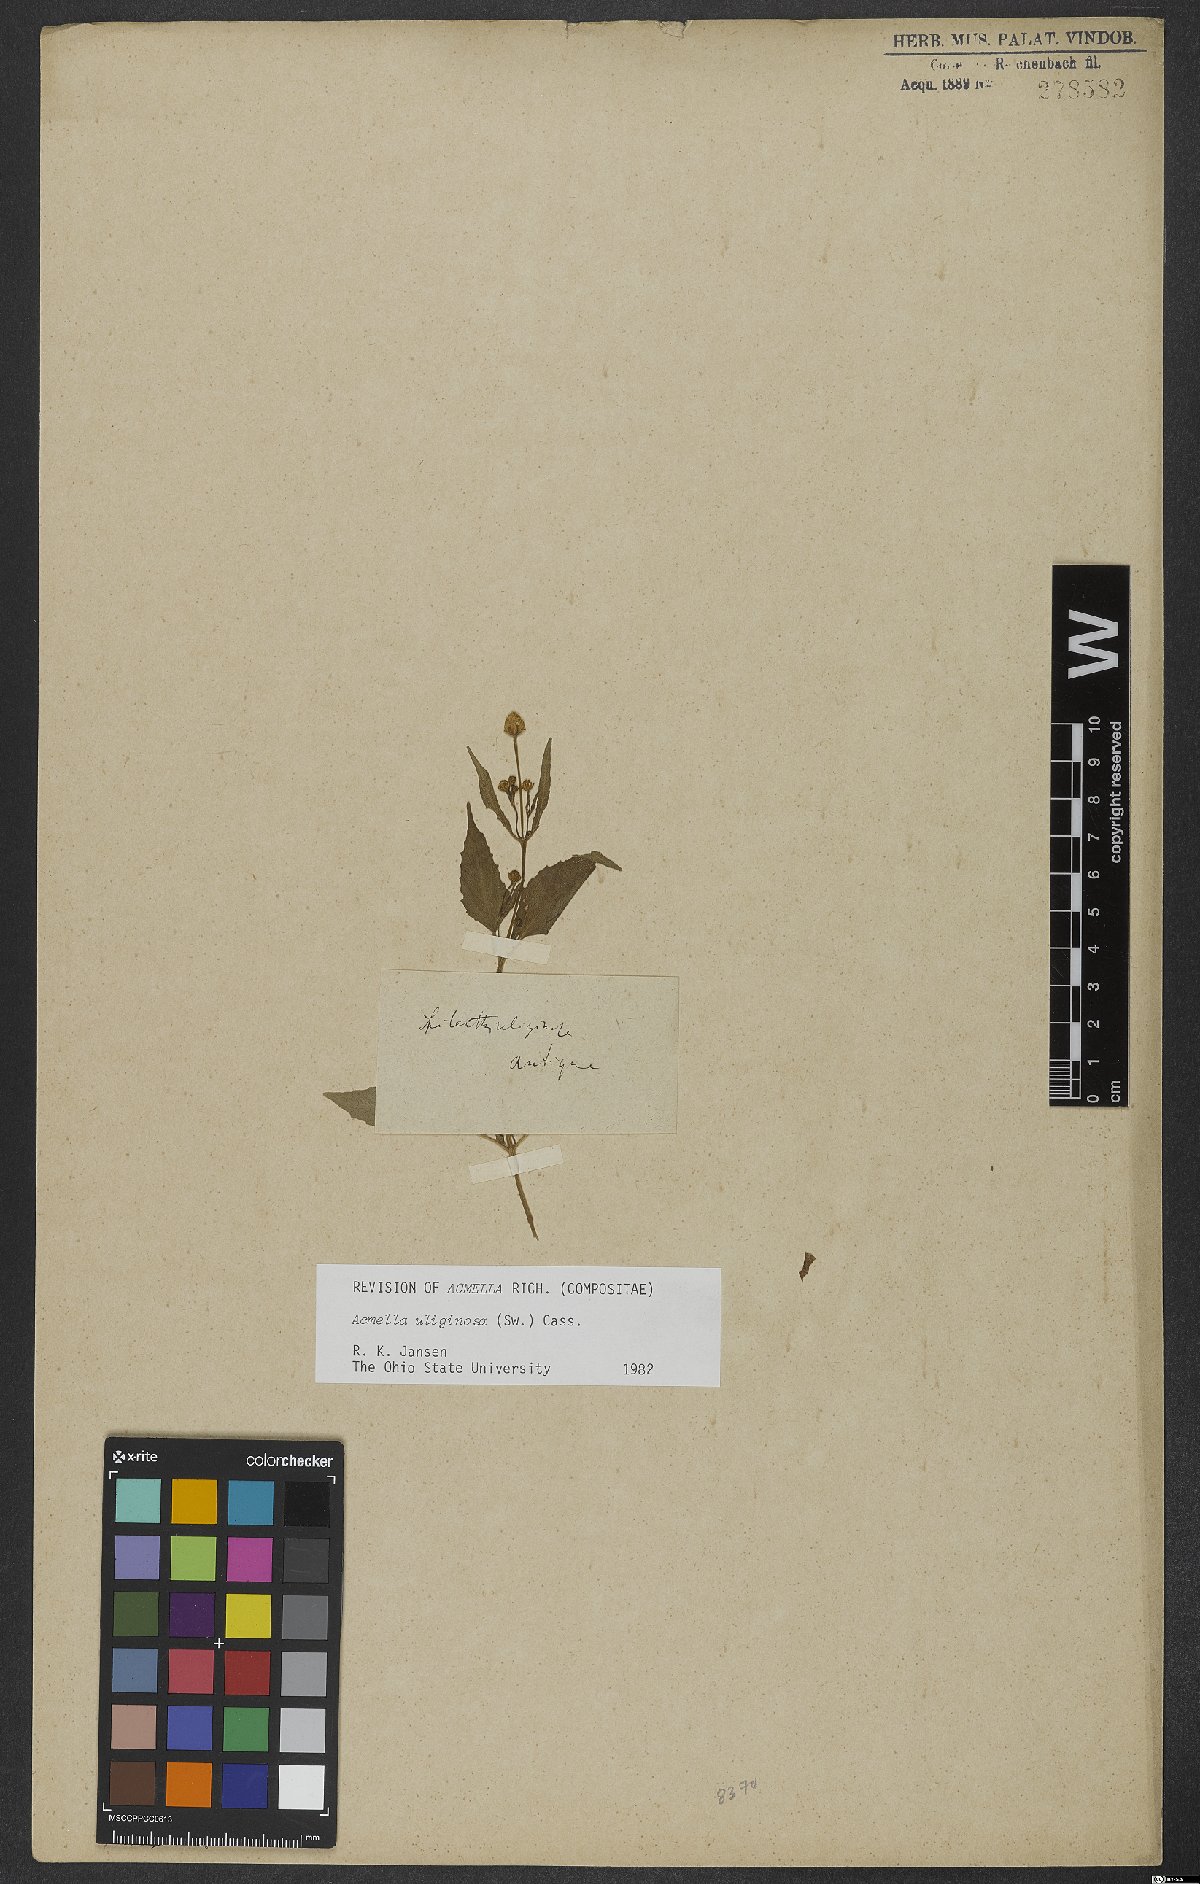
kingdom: Plantae
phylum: Tracheophyta
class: Magnoliopsida
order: Asterales
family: Asteraceae
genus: Acmella
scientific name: Acmella uliginosa
